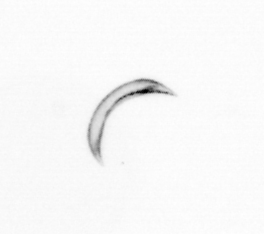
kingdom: Chromista
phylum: Ochrophyta
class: Bacillariophyceae
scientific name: Bacillariophyceae
